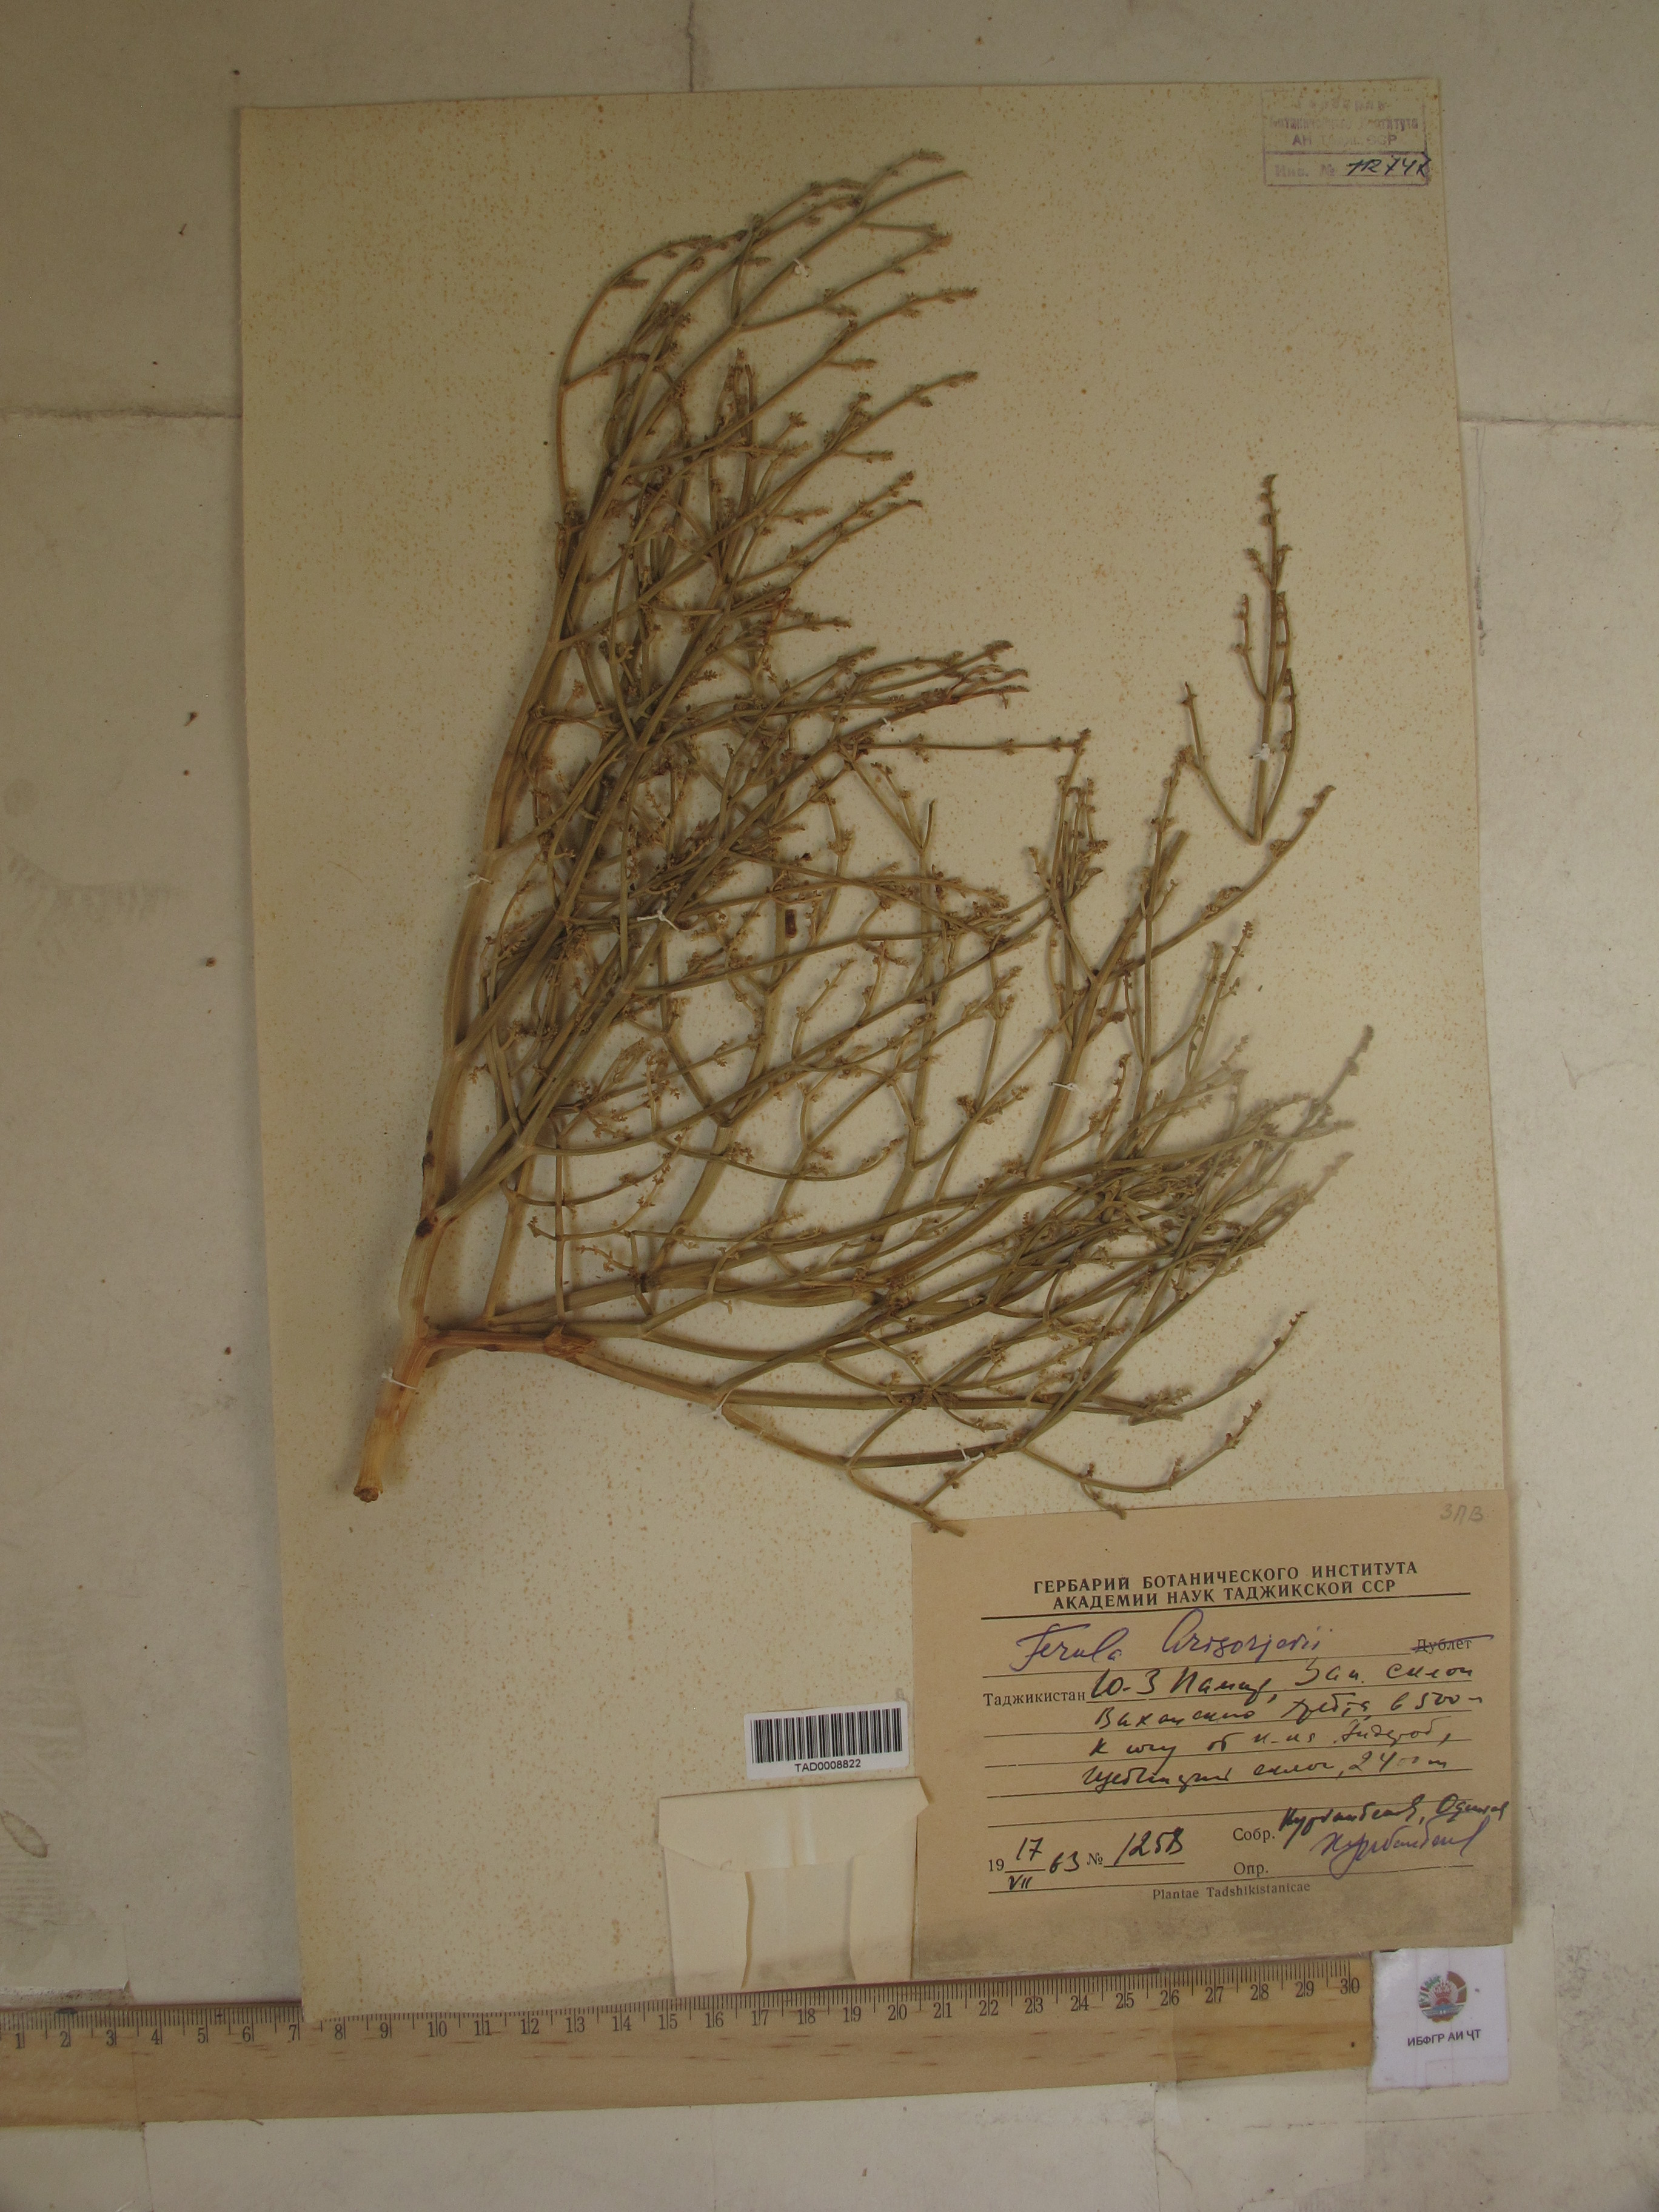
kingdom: Plantae
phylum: Tracheophyta
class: Magnoliopsida
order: Apiales
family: Apiaceae
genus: Ferula
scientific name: Ferula grigoriewii
